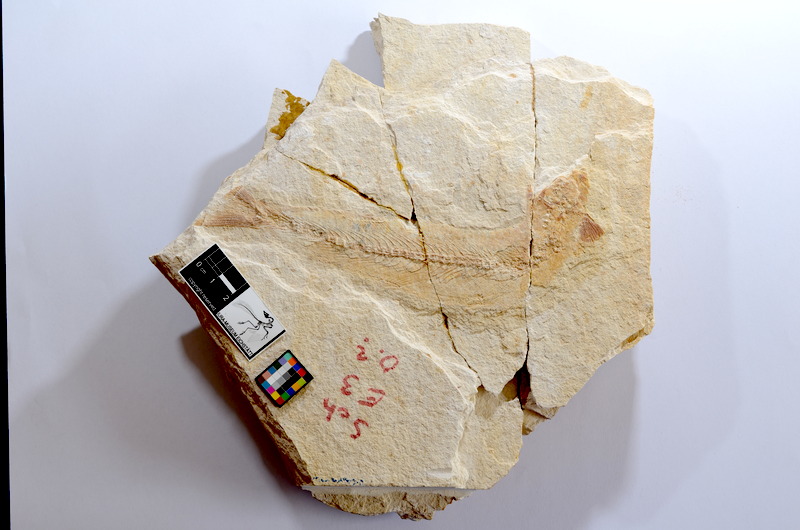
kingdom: Animalia
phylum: Chordata
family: Allothrissopidae
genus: Allothrissops
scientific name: Allothrissops
